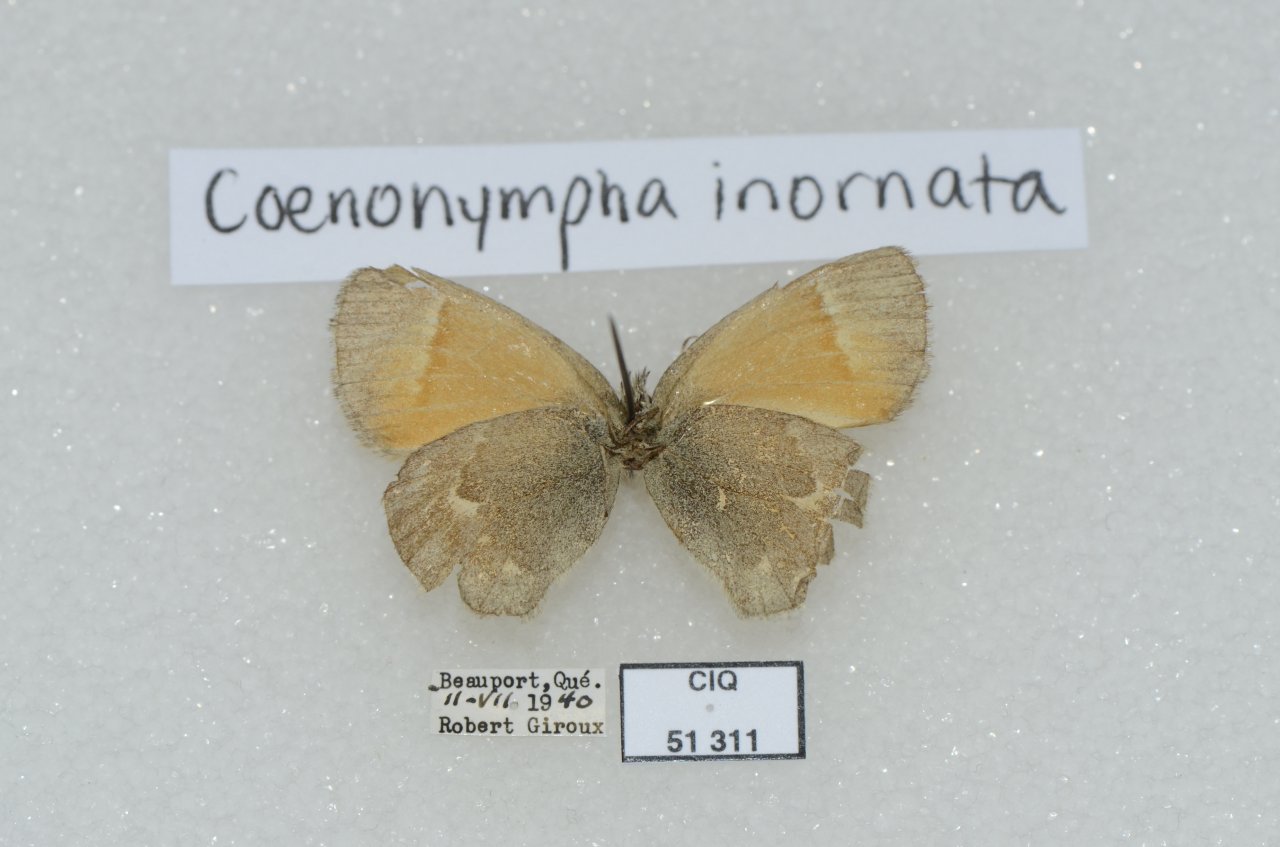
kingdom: Animalia
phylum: Arthropoda
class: Insecta
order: Lepidoptera
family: Nymphalidae
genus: Coenonympha
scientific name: Coenonympha tullia
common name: Large Heath
